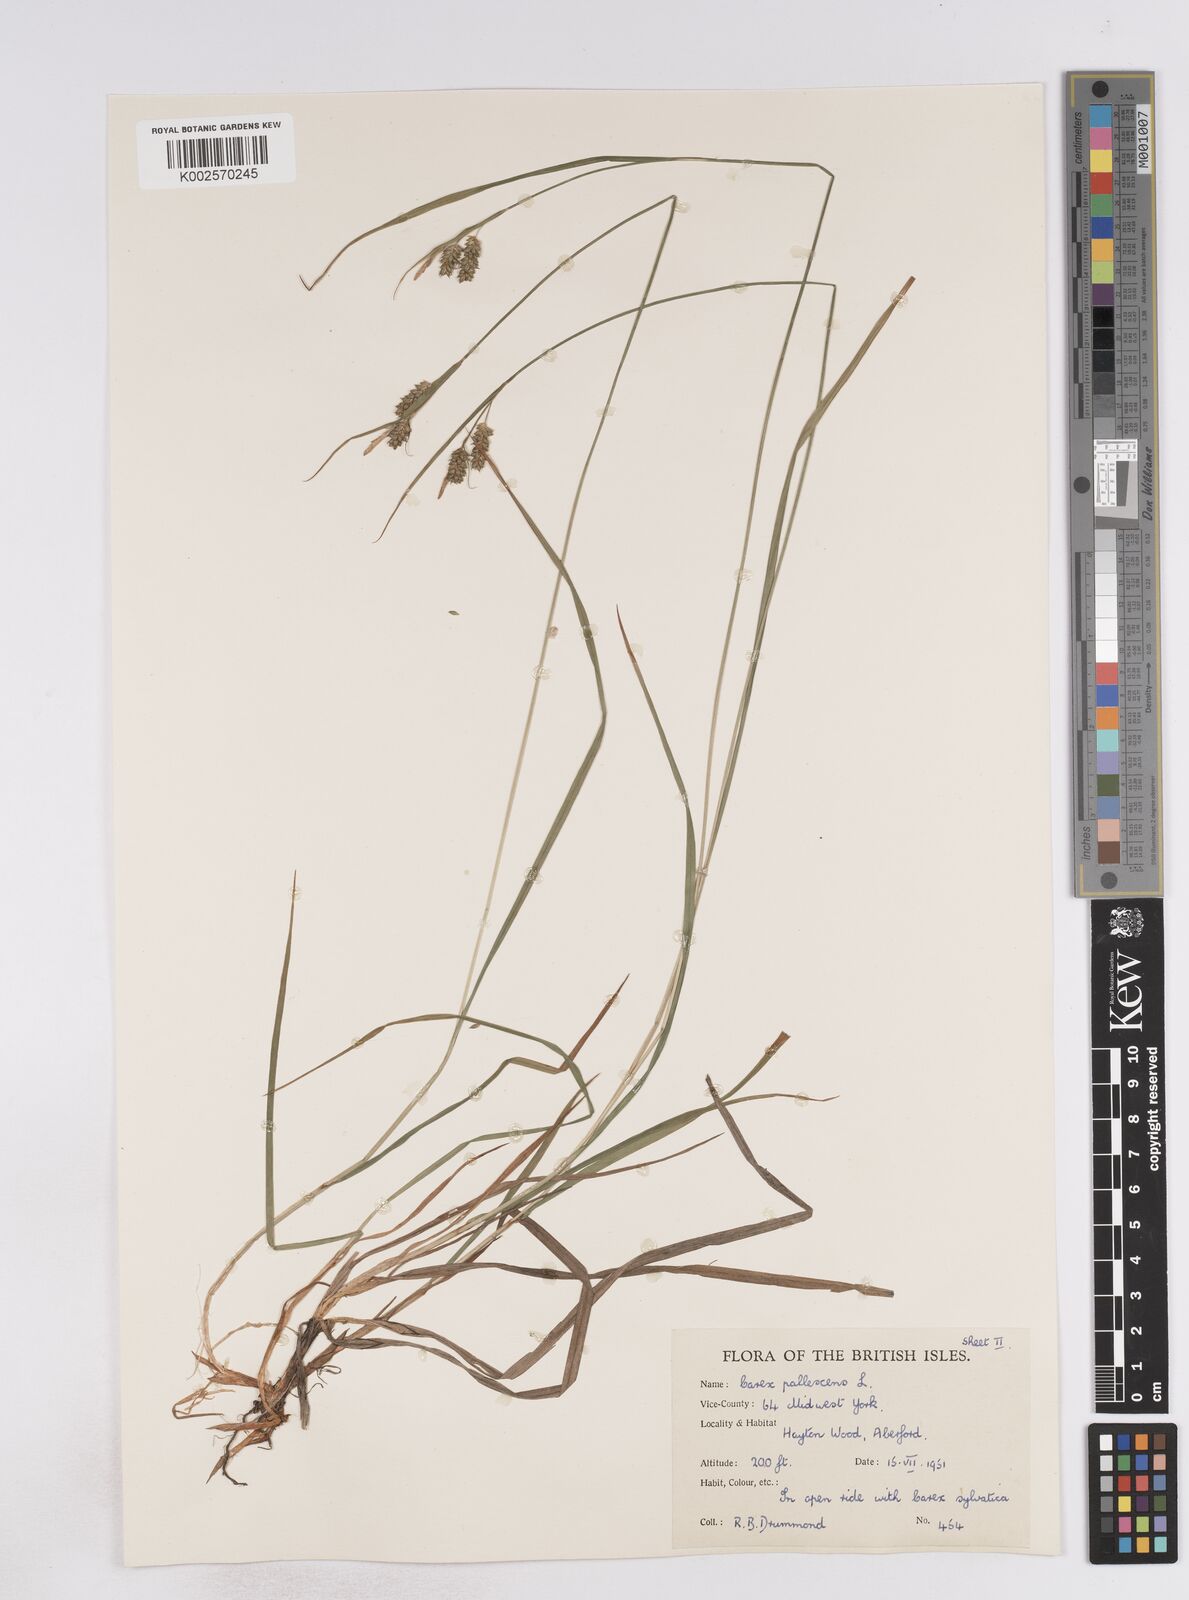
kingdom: Plantae
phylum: Tracheophyta
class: Liliopsida
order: Poales
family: Cyperaceae
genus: Carex
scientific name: Carex pallescens
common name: Pale sedge
